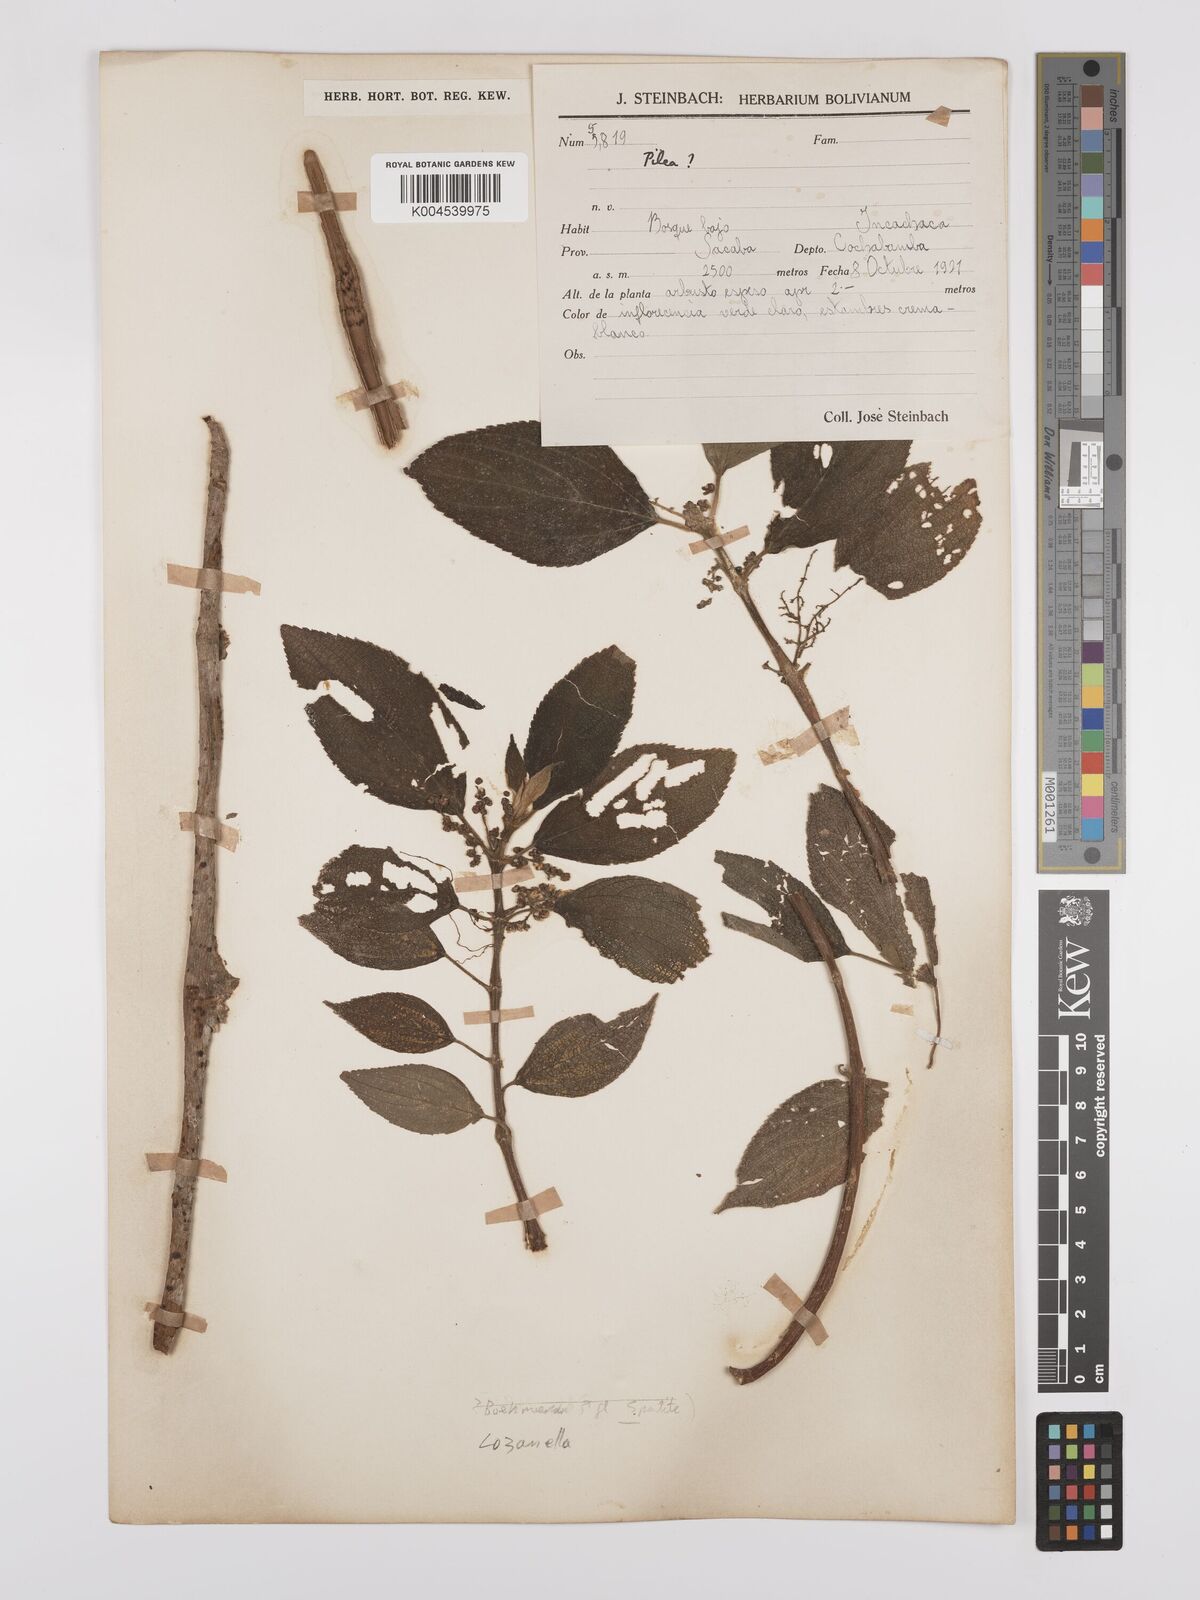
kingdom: Plantae
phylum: Tracheophyta
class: Magnoliopsida
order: Rosales
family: Cannabaceae
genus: Lozanella
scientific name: Lozanella enantiophylla
